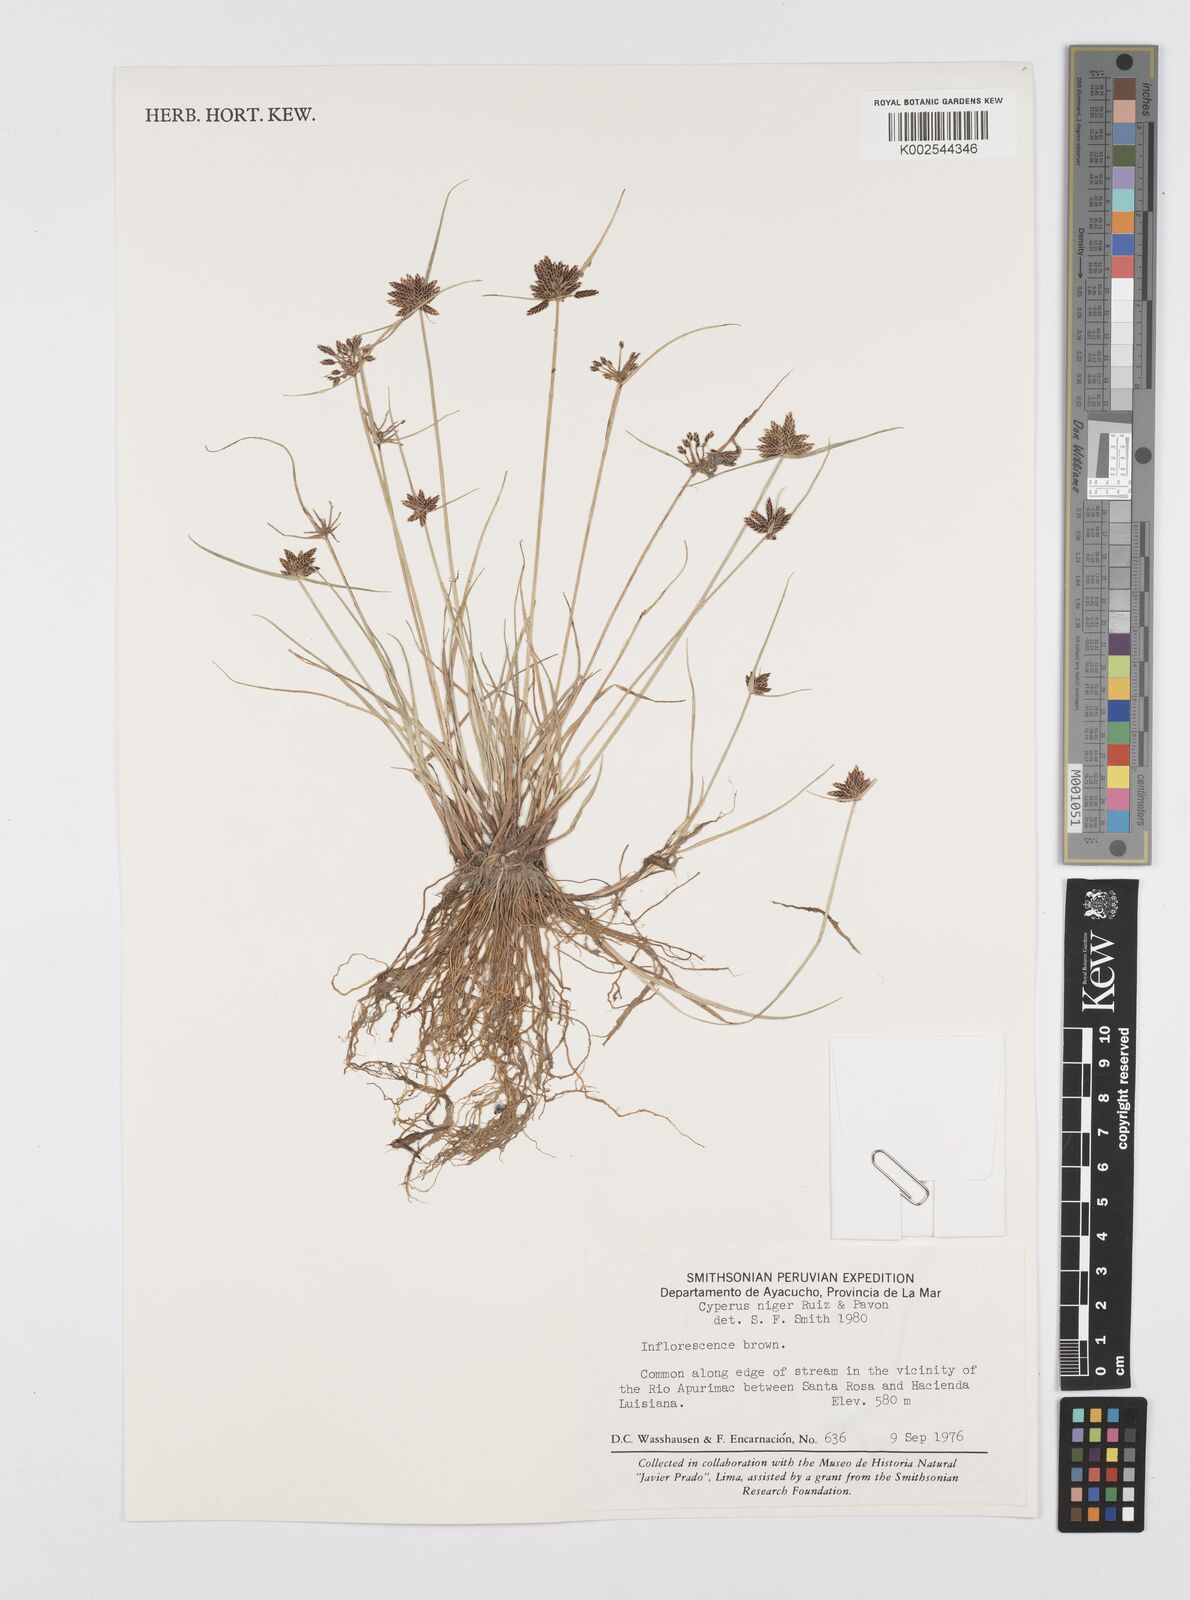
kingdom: Plantae
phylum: Tracheophyta
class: Liliopsida
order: Poales
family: Cyperaceae
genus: Cyperus
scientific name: Cyperus melanostachyus
